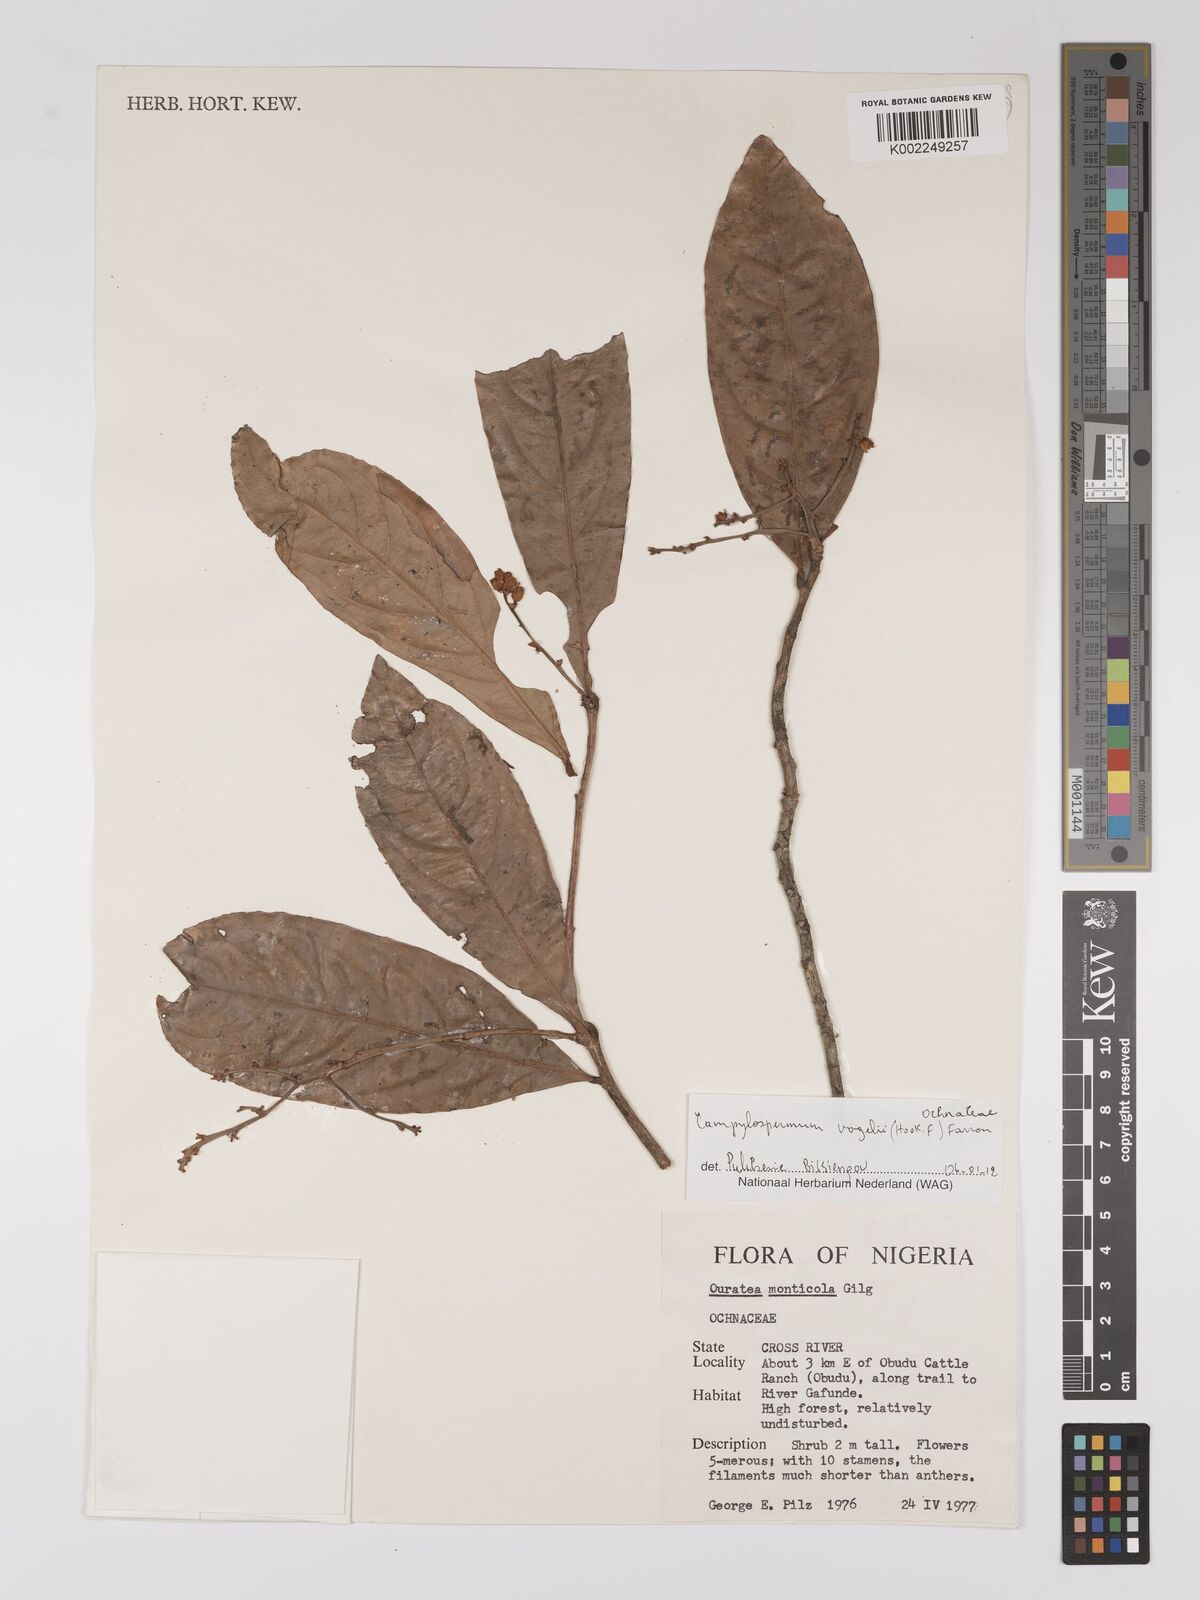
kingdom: Plantae
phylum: Tracheophyta
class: Magnoliopsida
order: Malpighiales
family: Ochnaceae
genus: Campylospermum
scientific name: Campylospermum vogelii
